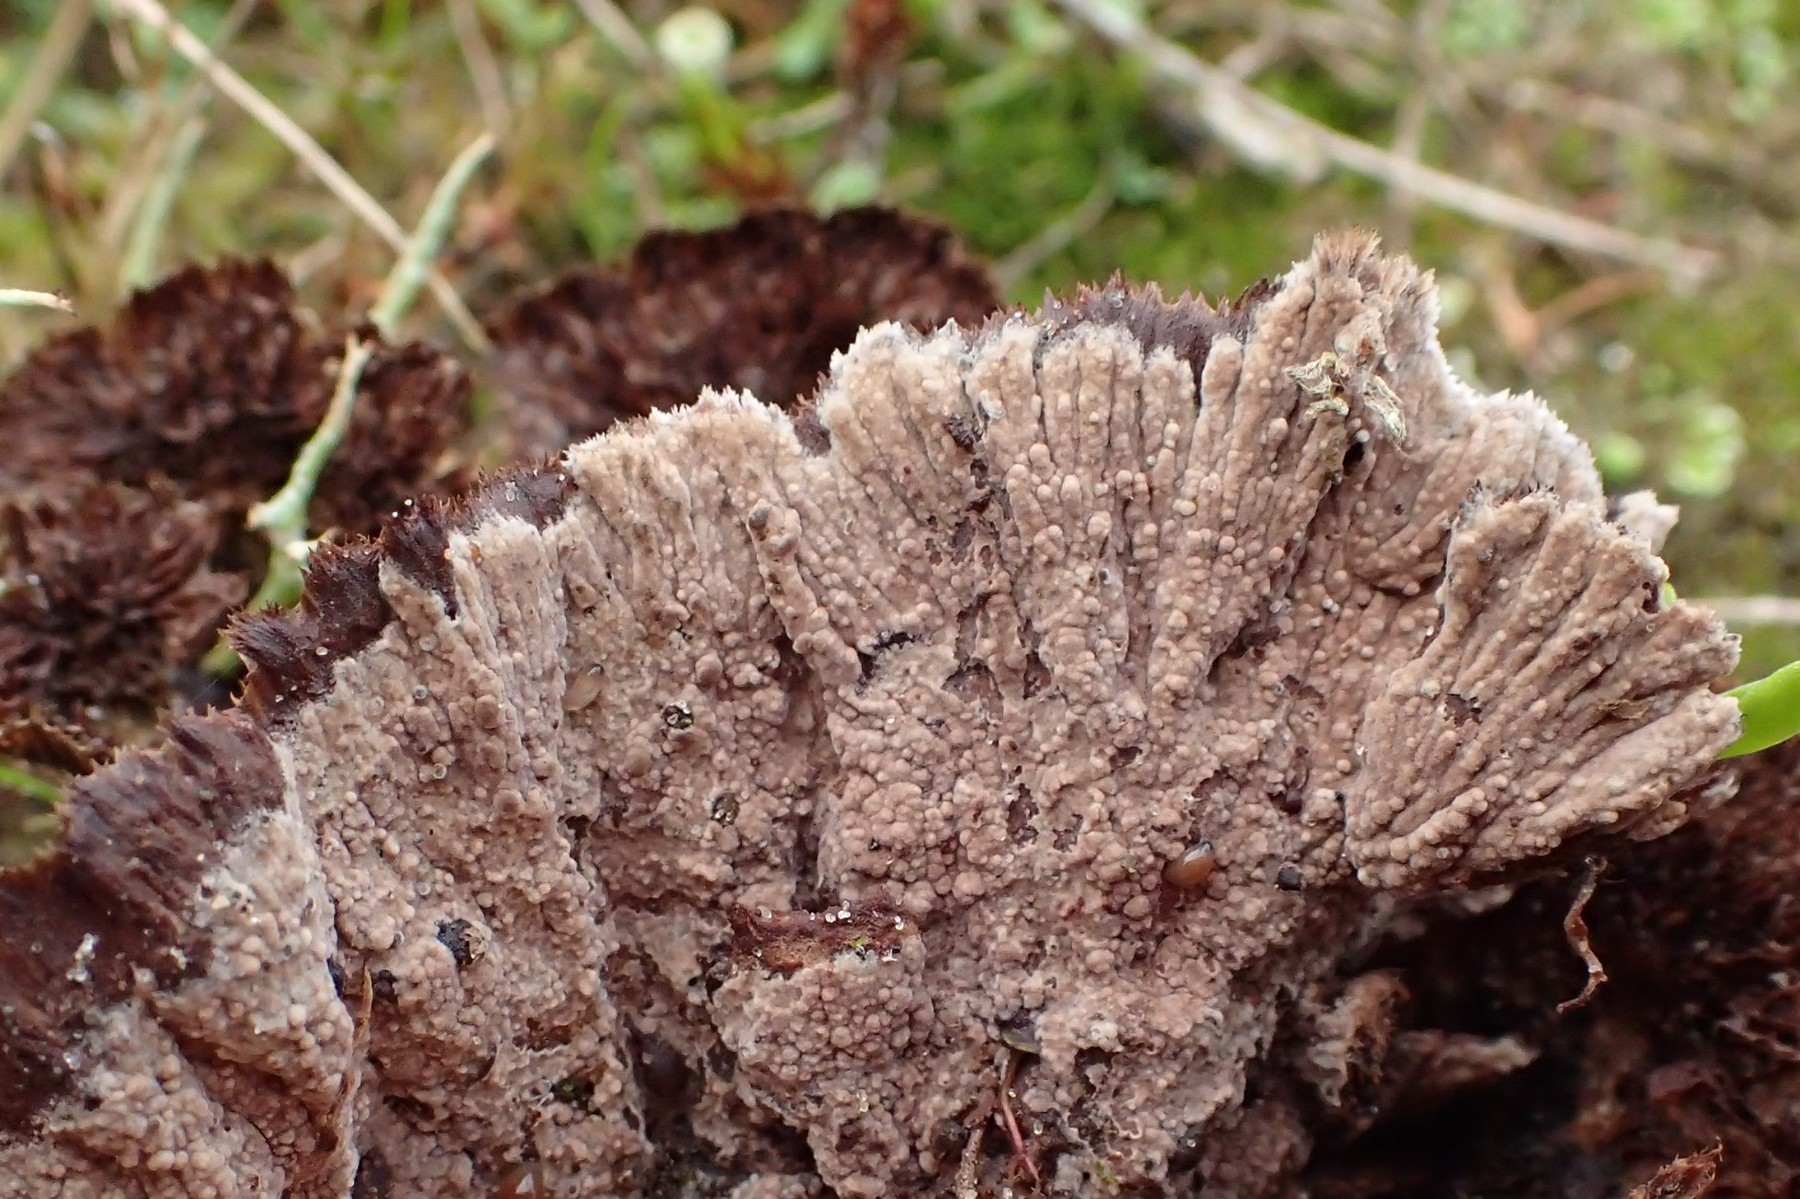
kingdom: Fungi
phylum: Basidiomycota
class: Agaricomycetes
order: Thelephorales
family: Thelephoraceae
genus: Thelephora
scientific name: Thelephora terrestris
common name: fliget frynsesvamp
